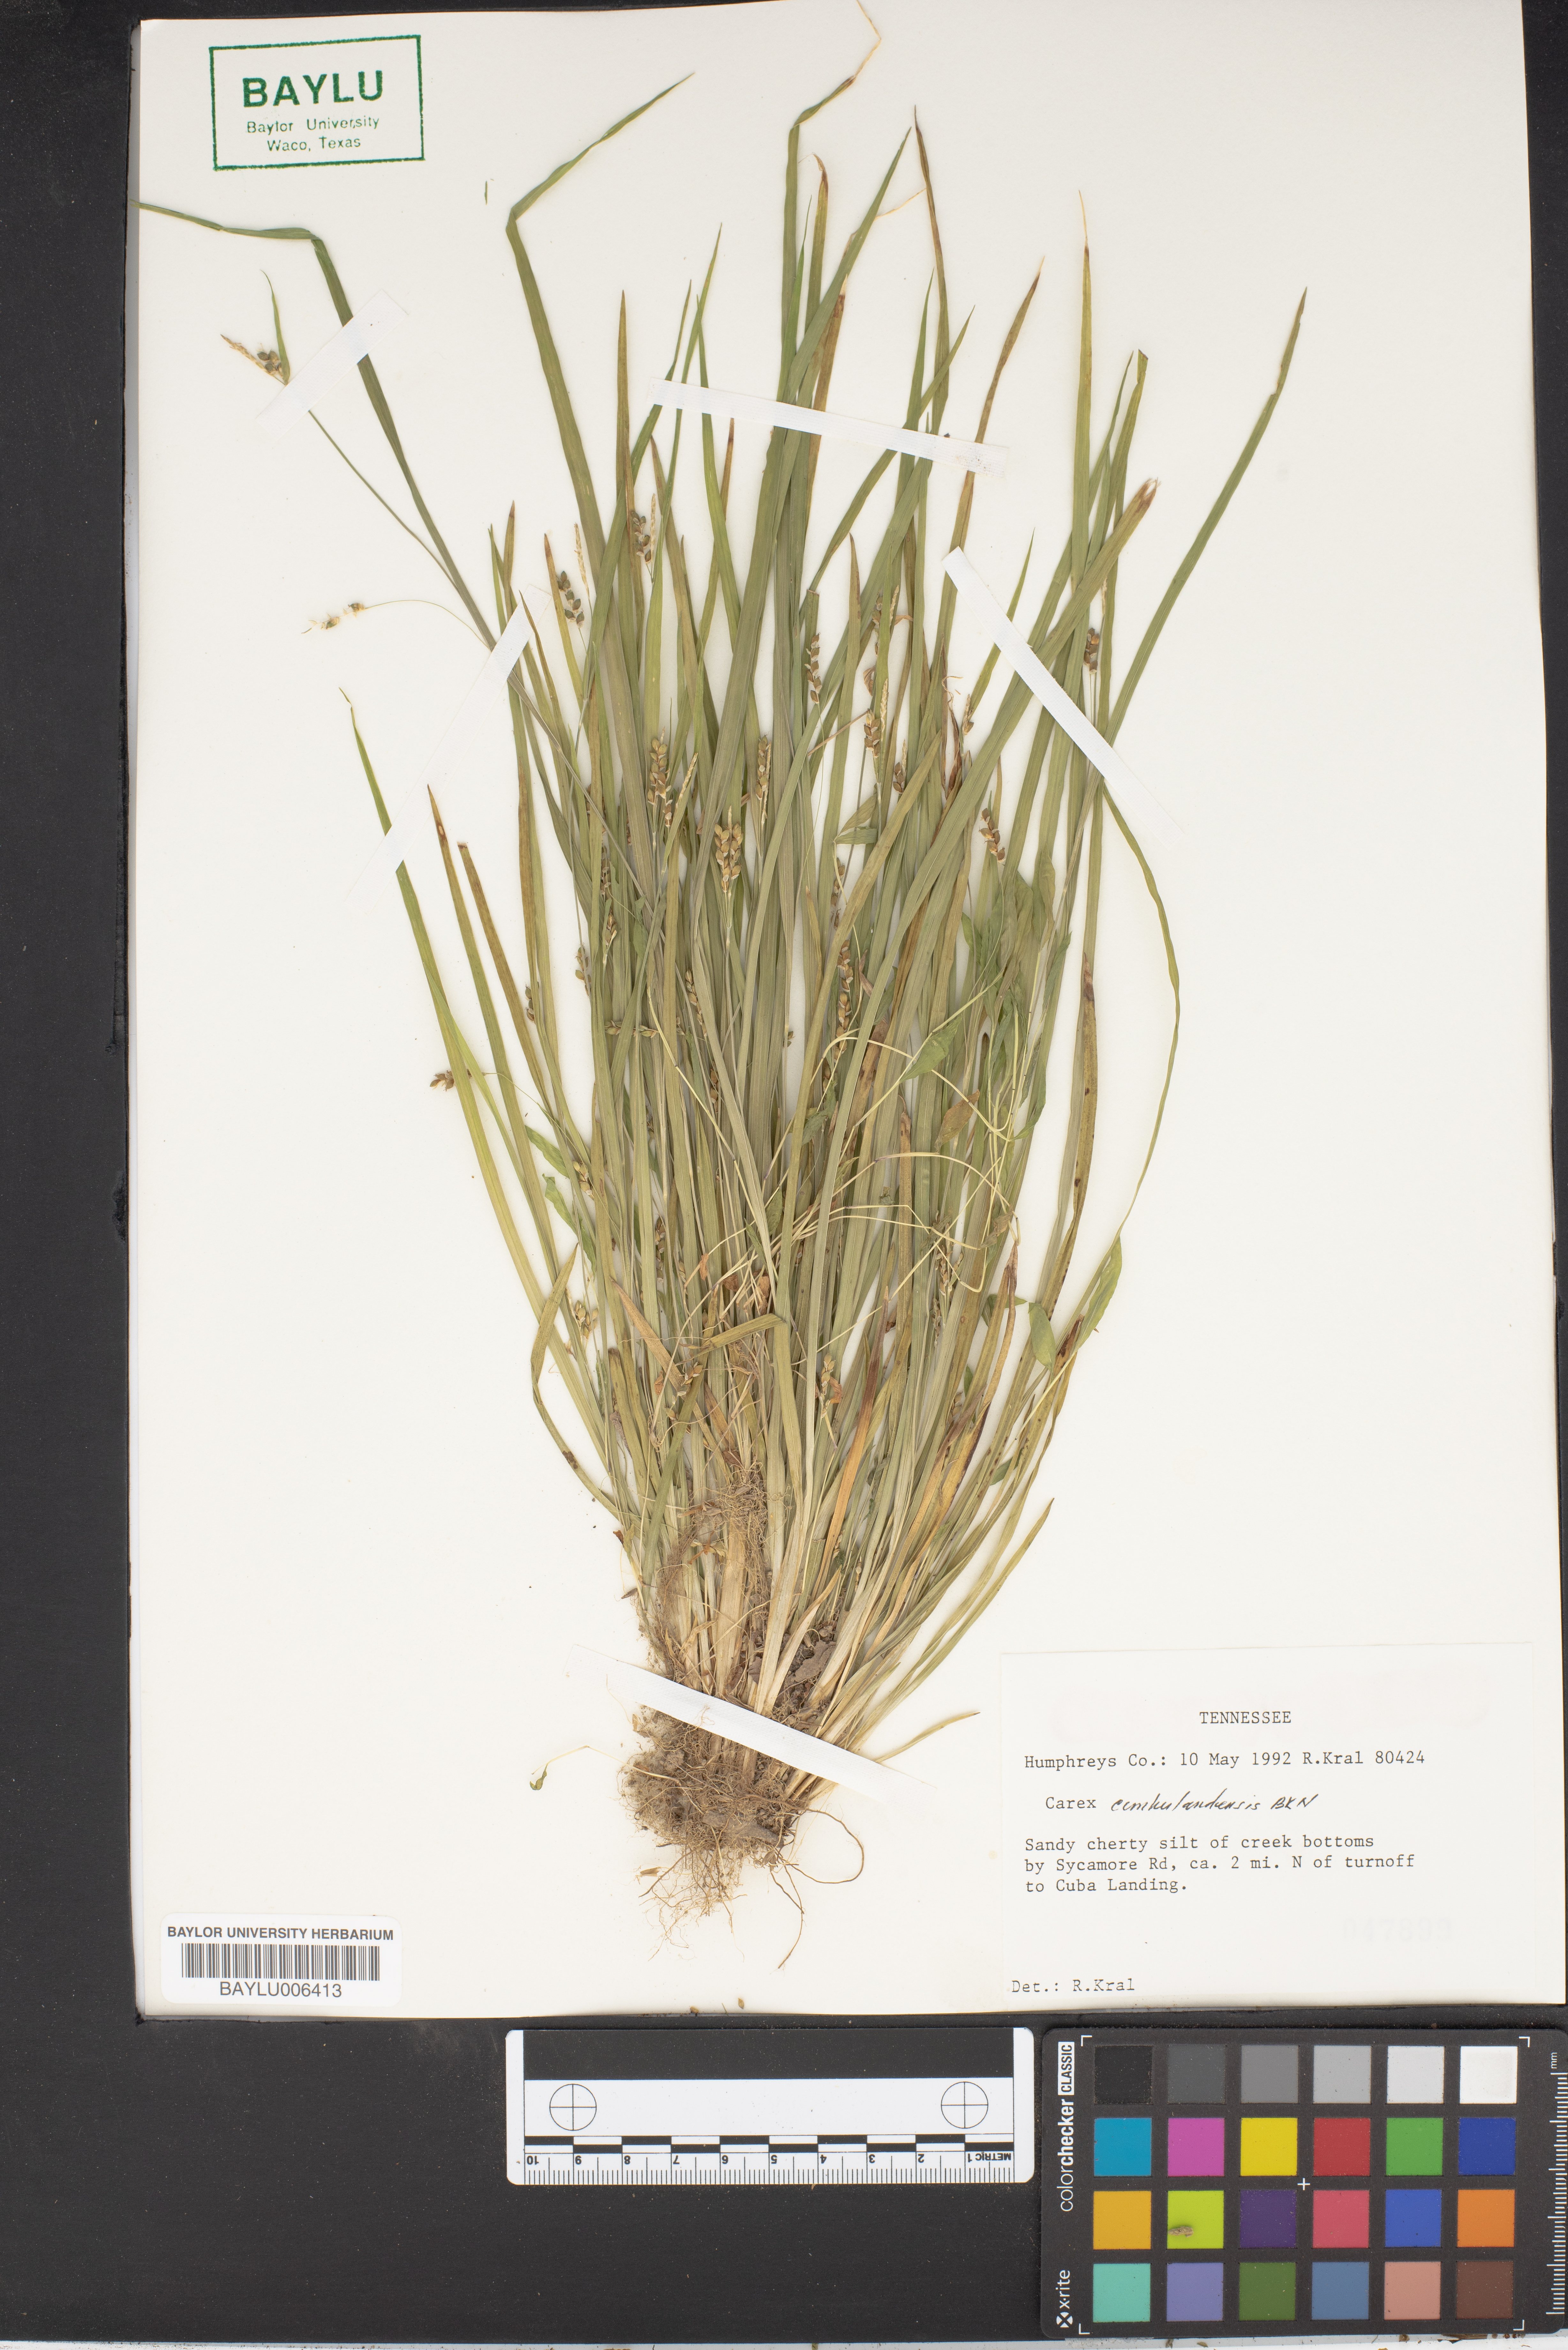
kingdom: Plantae
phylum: Tracheophyta
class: Liliopsida
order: Poales
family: Cyperaceae
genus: Carex
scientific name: Carex cumberlandensis
